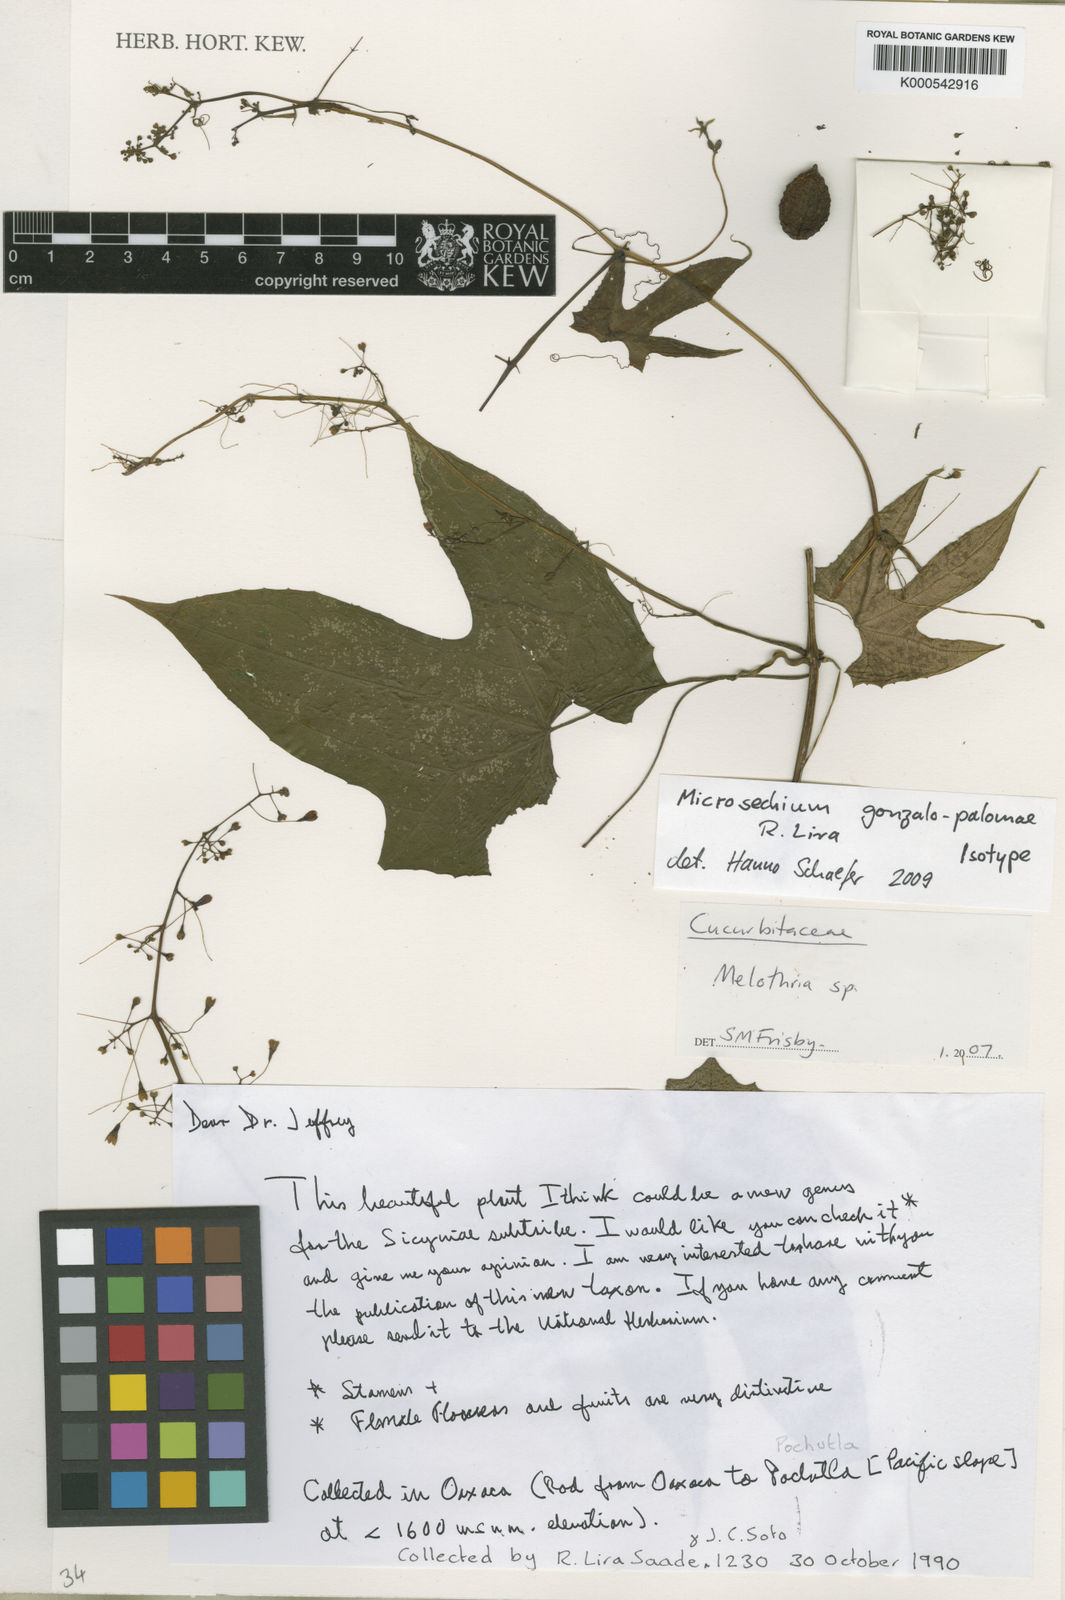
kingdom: Plantae
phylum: Tracheophyta
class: Magnoliopsida
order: Cucurbitales
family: Cucurbitaceae
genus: Microsechium
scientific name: Microsechium gonzalo-palomae
